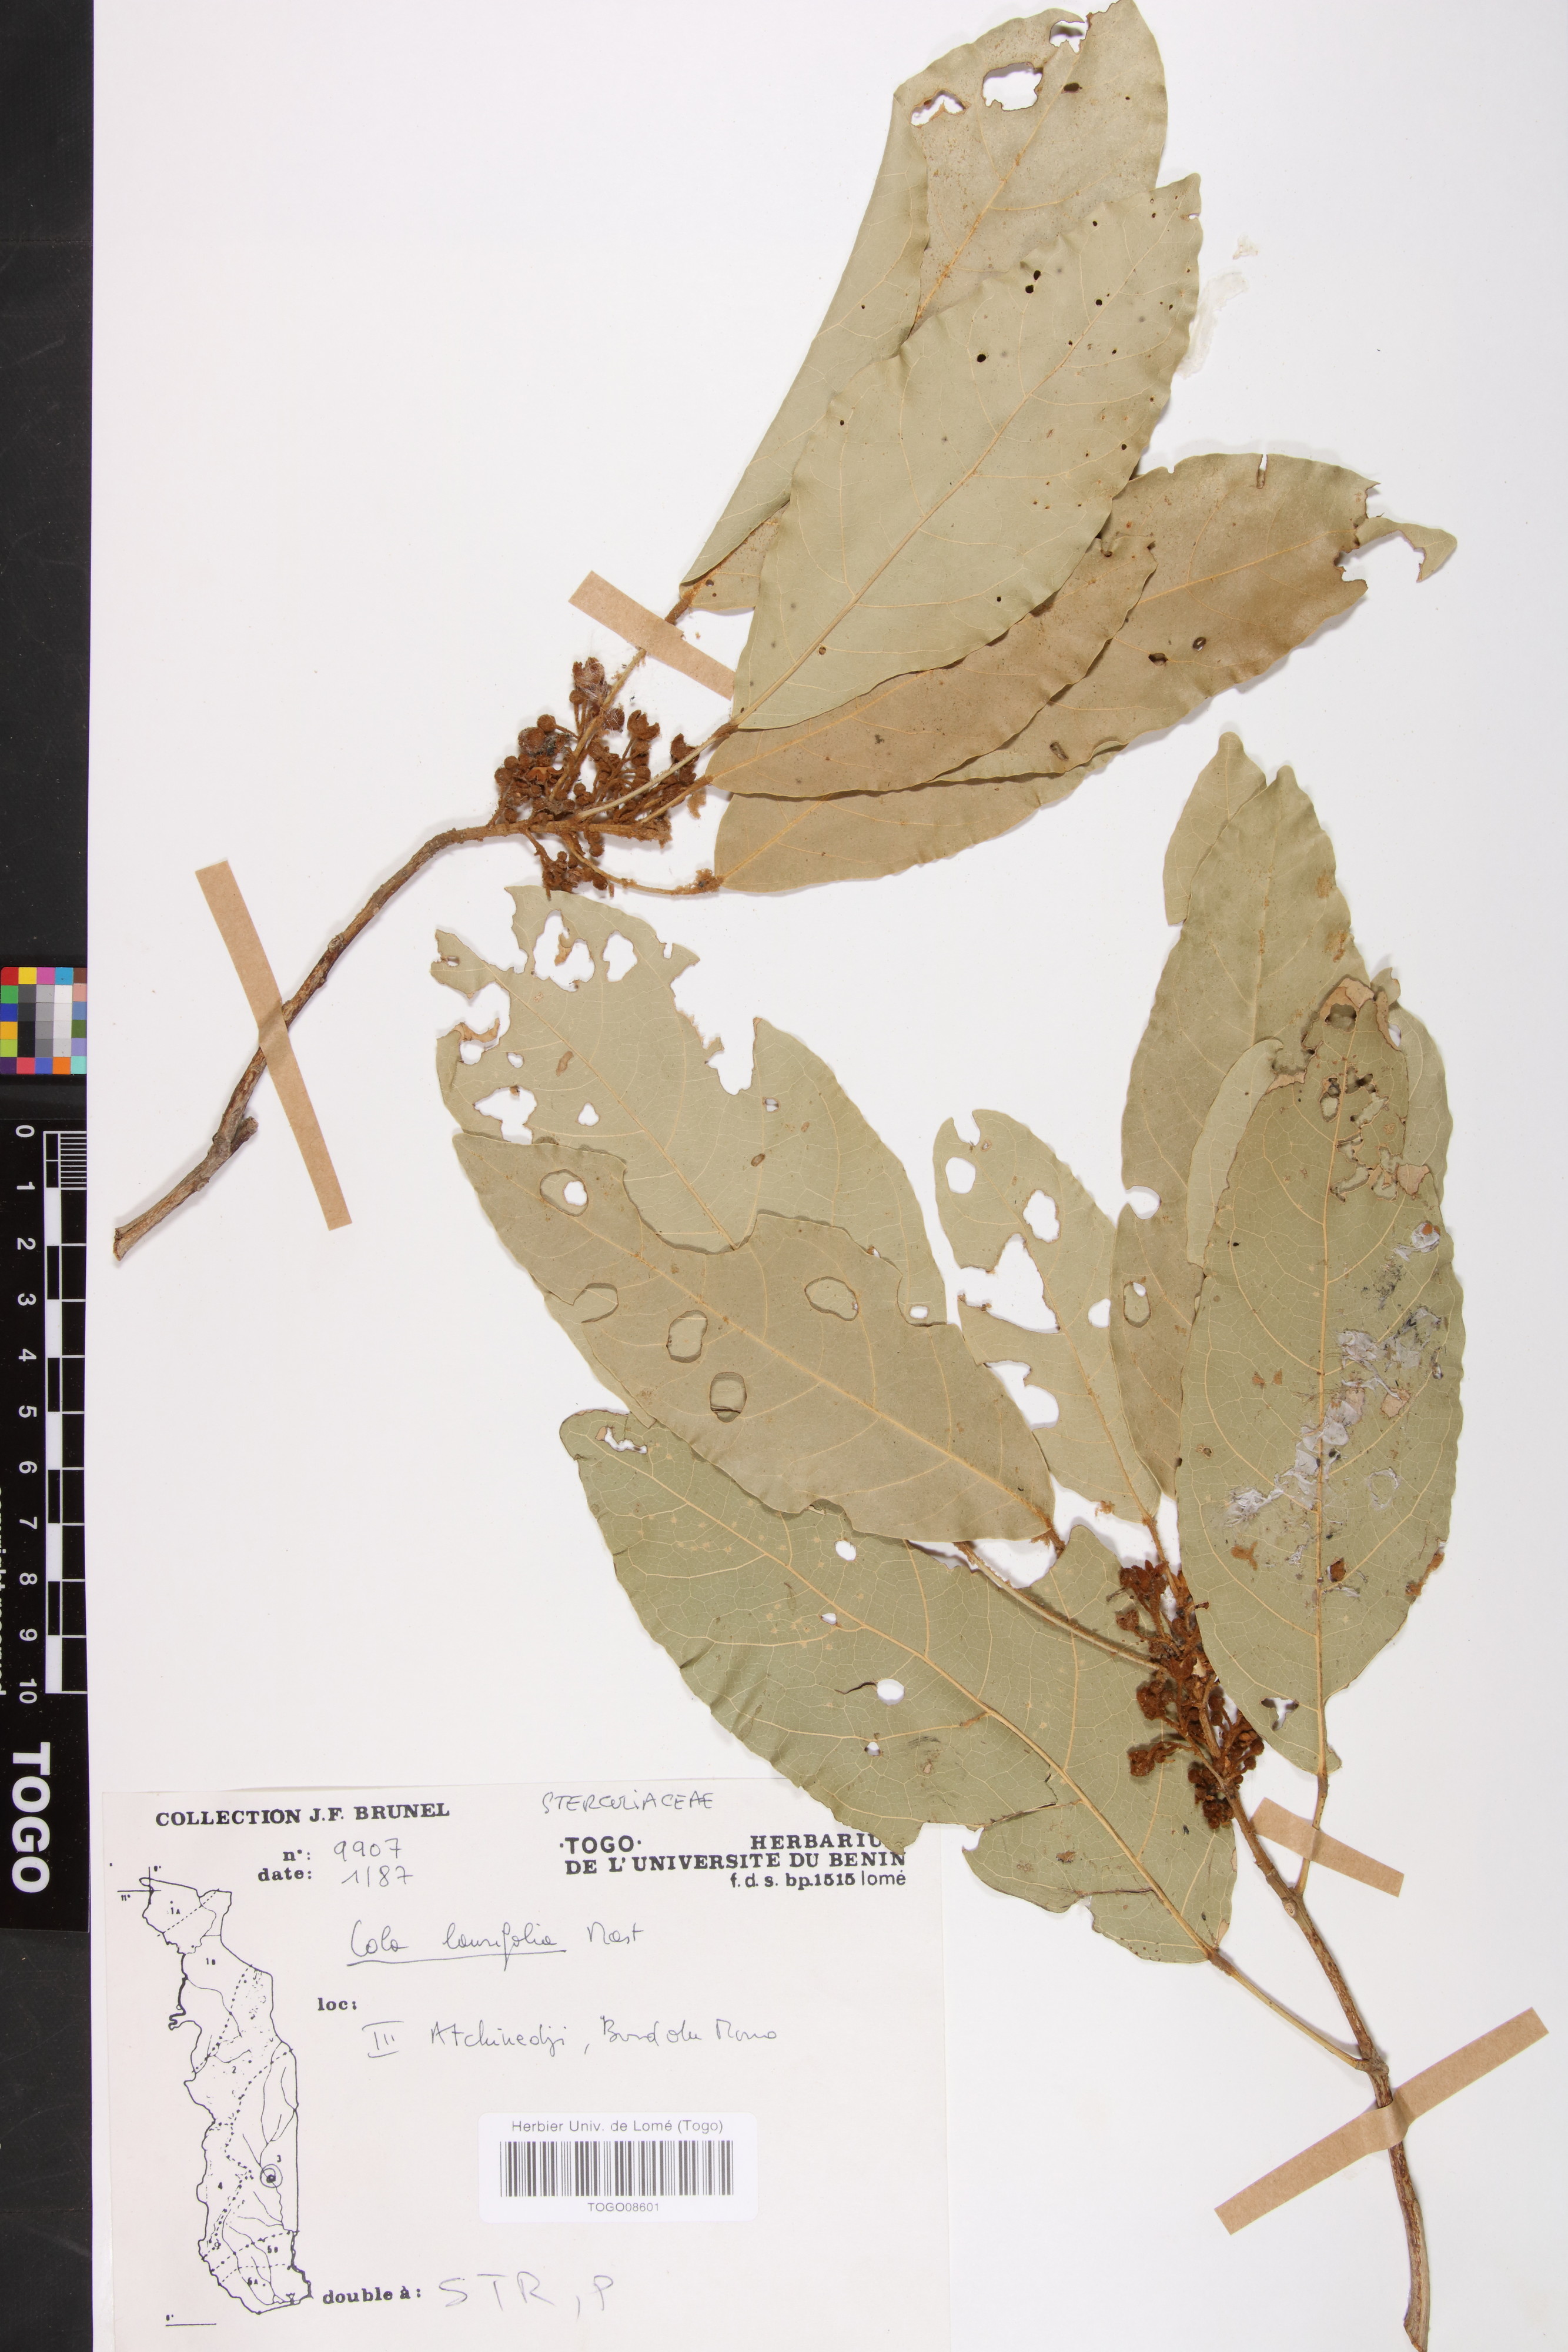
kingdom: Plantae
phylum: Tracheophyta
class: Magnoliopsida
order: Malvales
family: Malvaceae
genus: Cola
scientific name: Cola laurifolia
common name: Laurel-leaved kola
